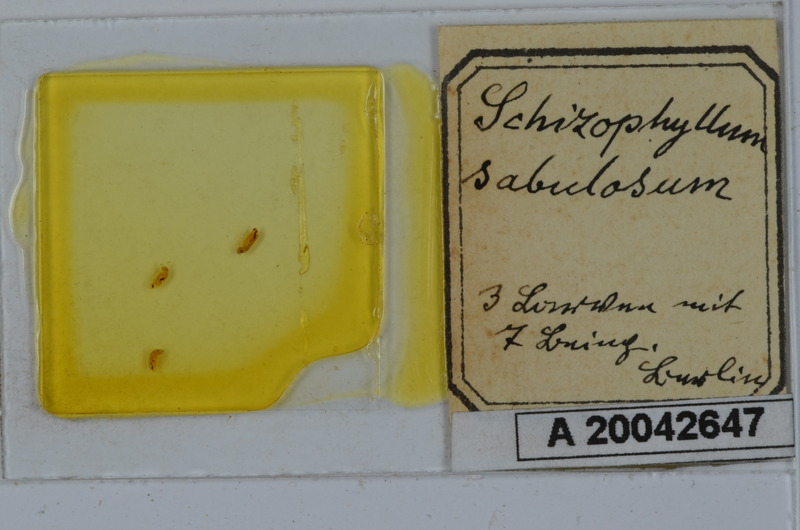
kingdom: Animalia
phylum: Arthropoda
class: Diplopoda
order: Julida
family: Julidae
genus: Schizophyllum
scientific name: Schizophyllum sabulosum
